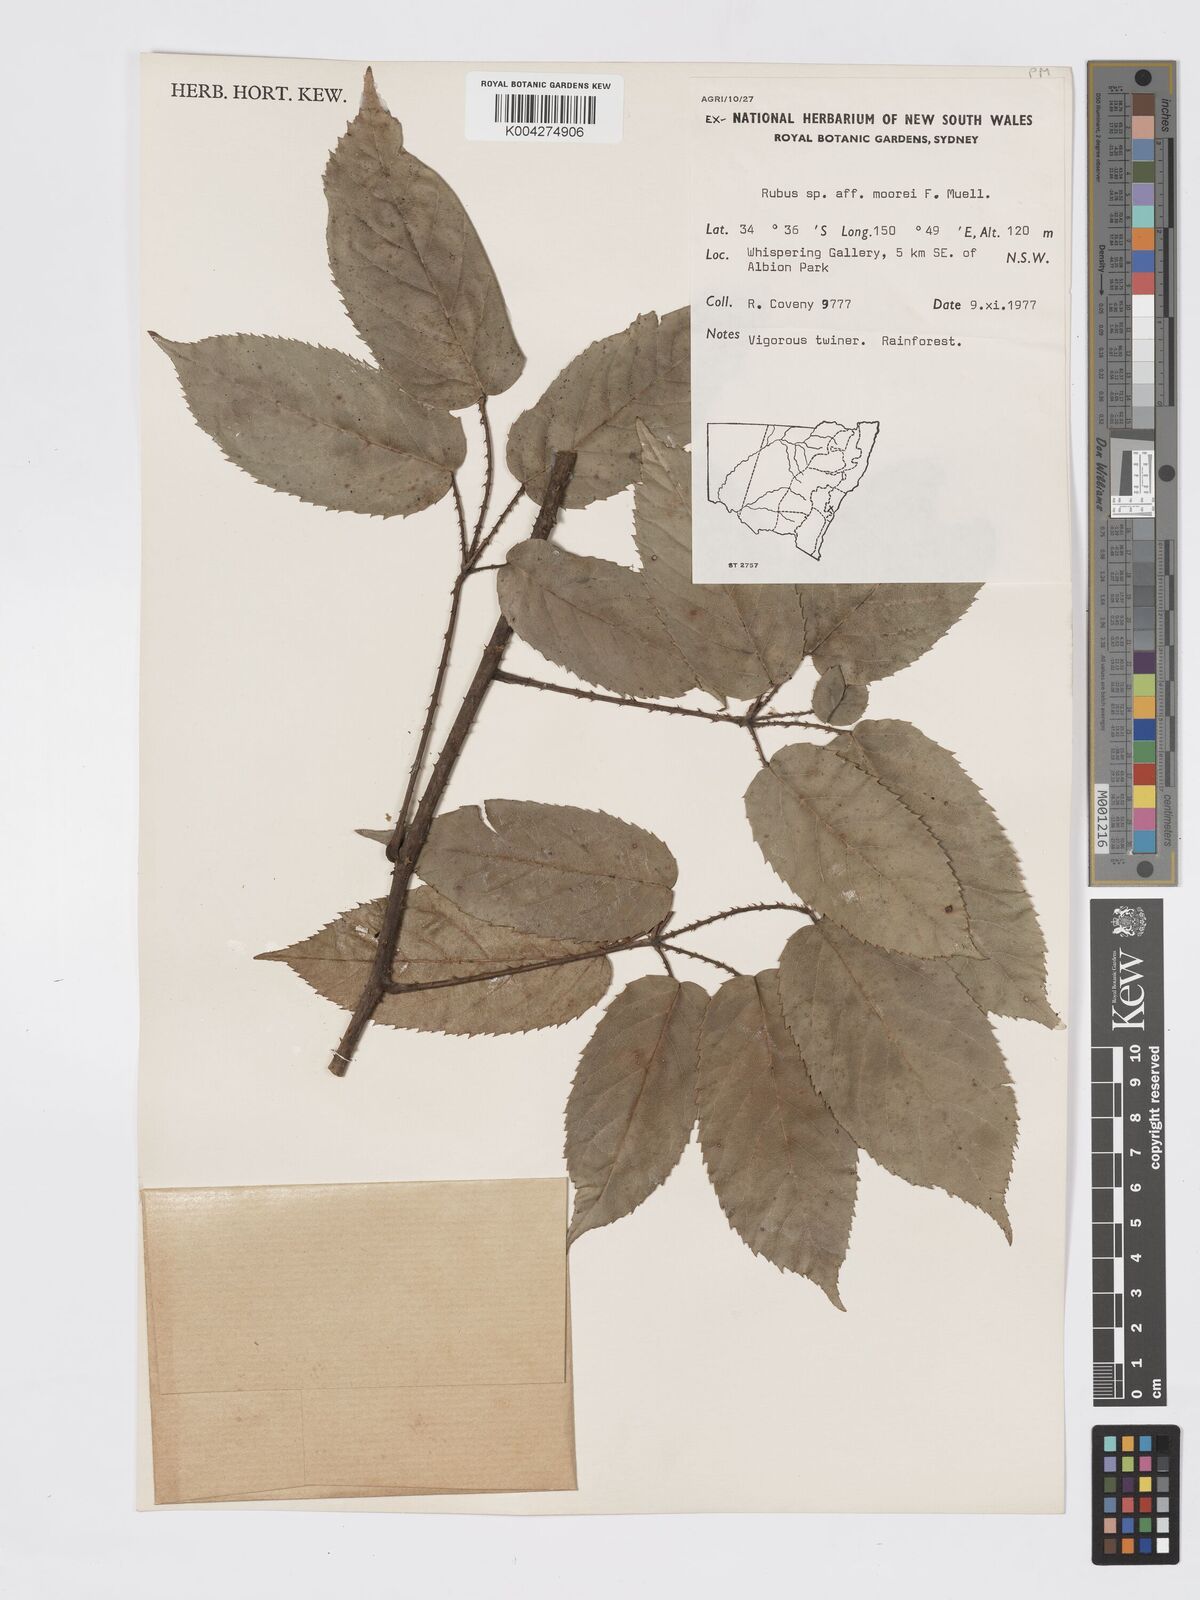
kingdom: Plantae
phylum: Tracheophyta
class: Magnoliopsida
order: Rosales
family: Rosaceae
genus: Rubus
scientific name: Rubus moorei
